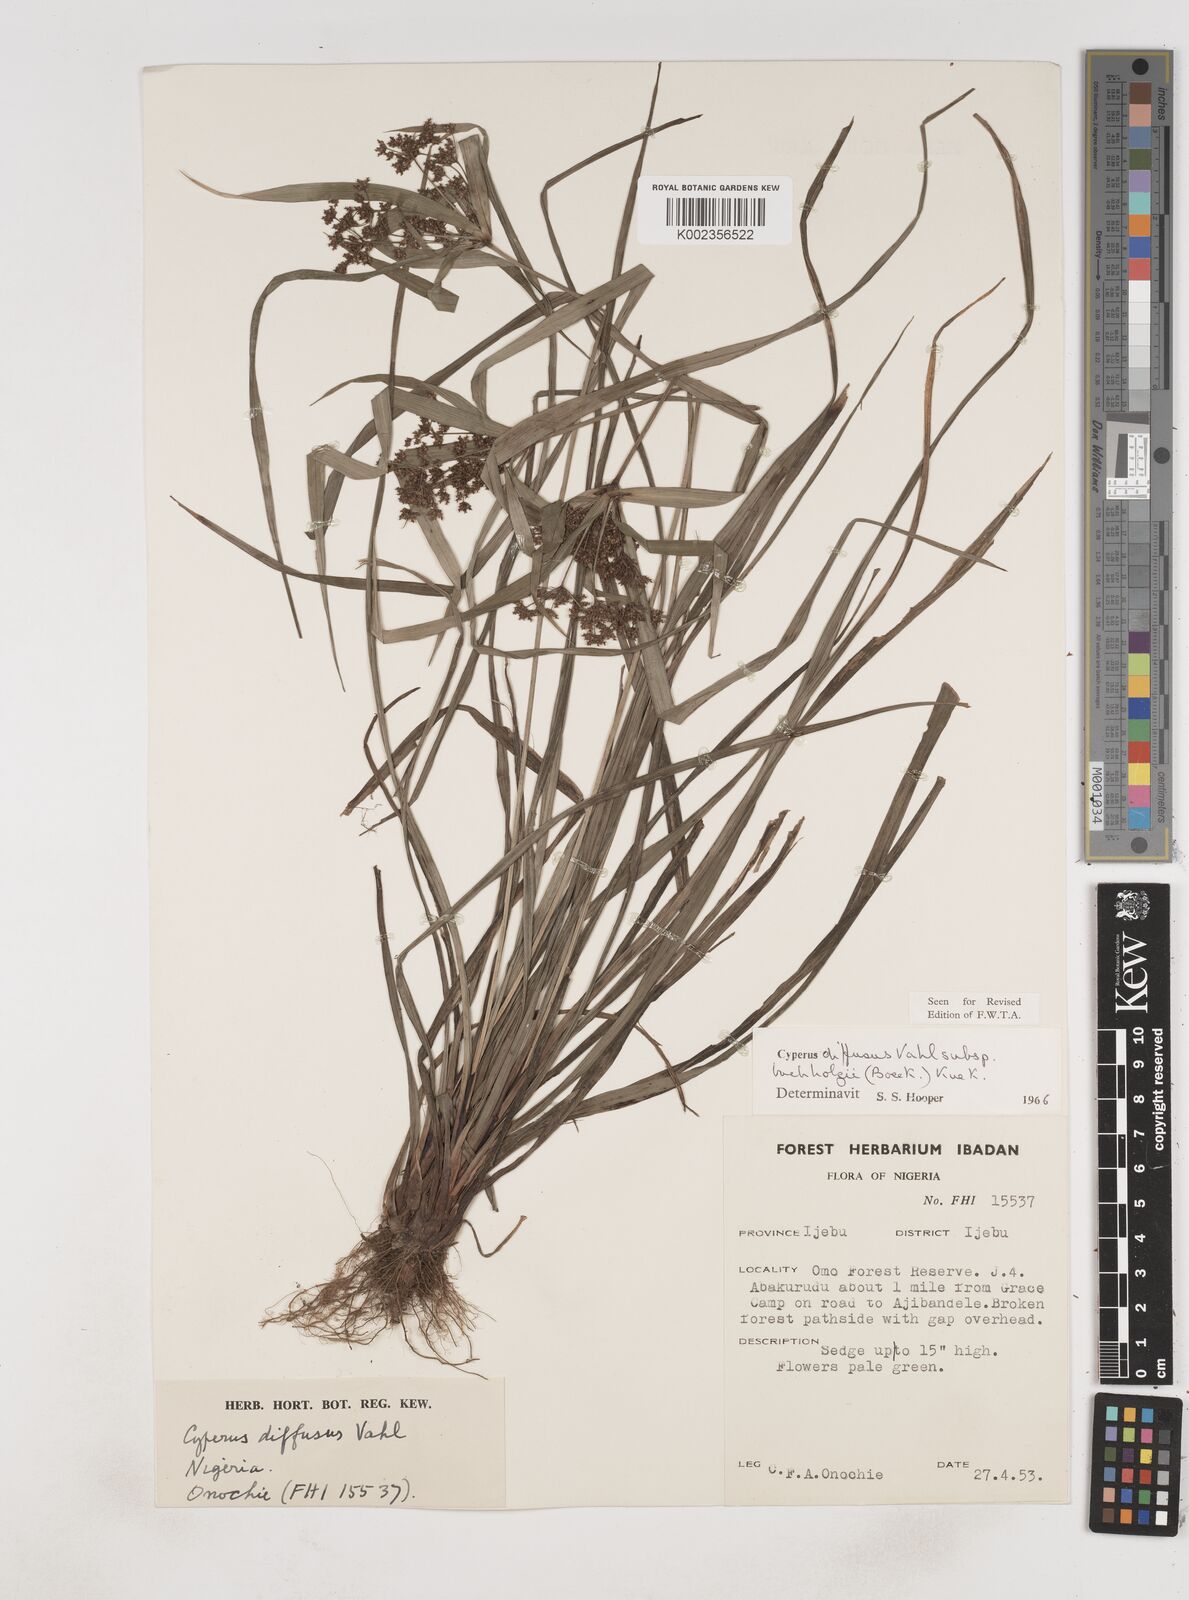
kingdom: Plantae
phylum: Tracheophyta
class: Liliopsida
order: Poales
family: Cyperaceae
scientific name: Cyperaceae
